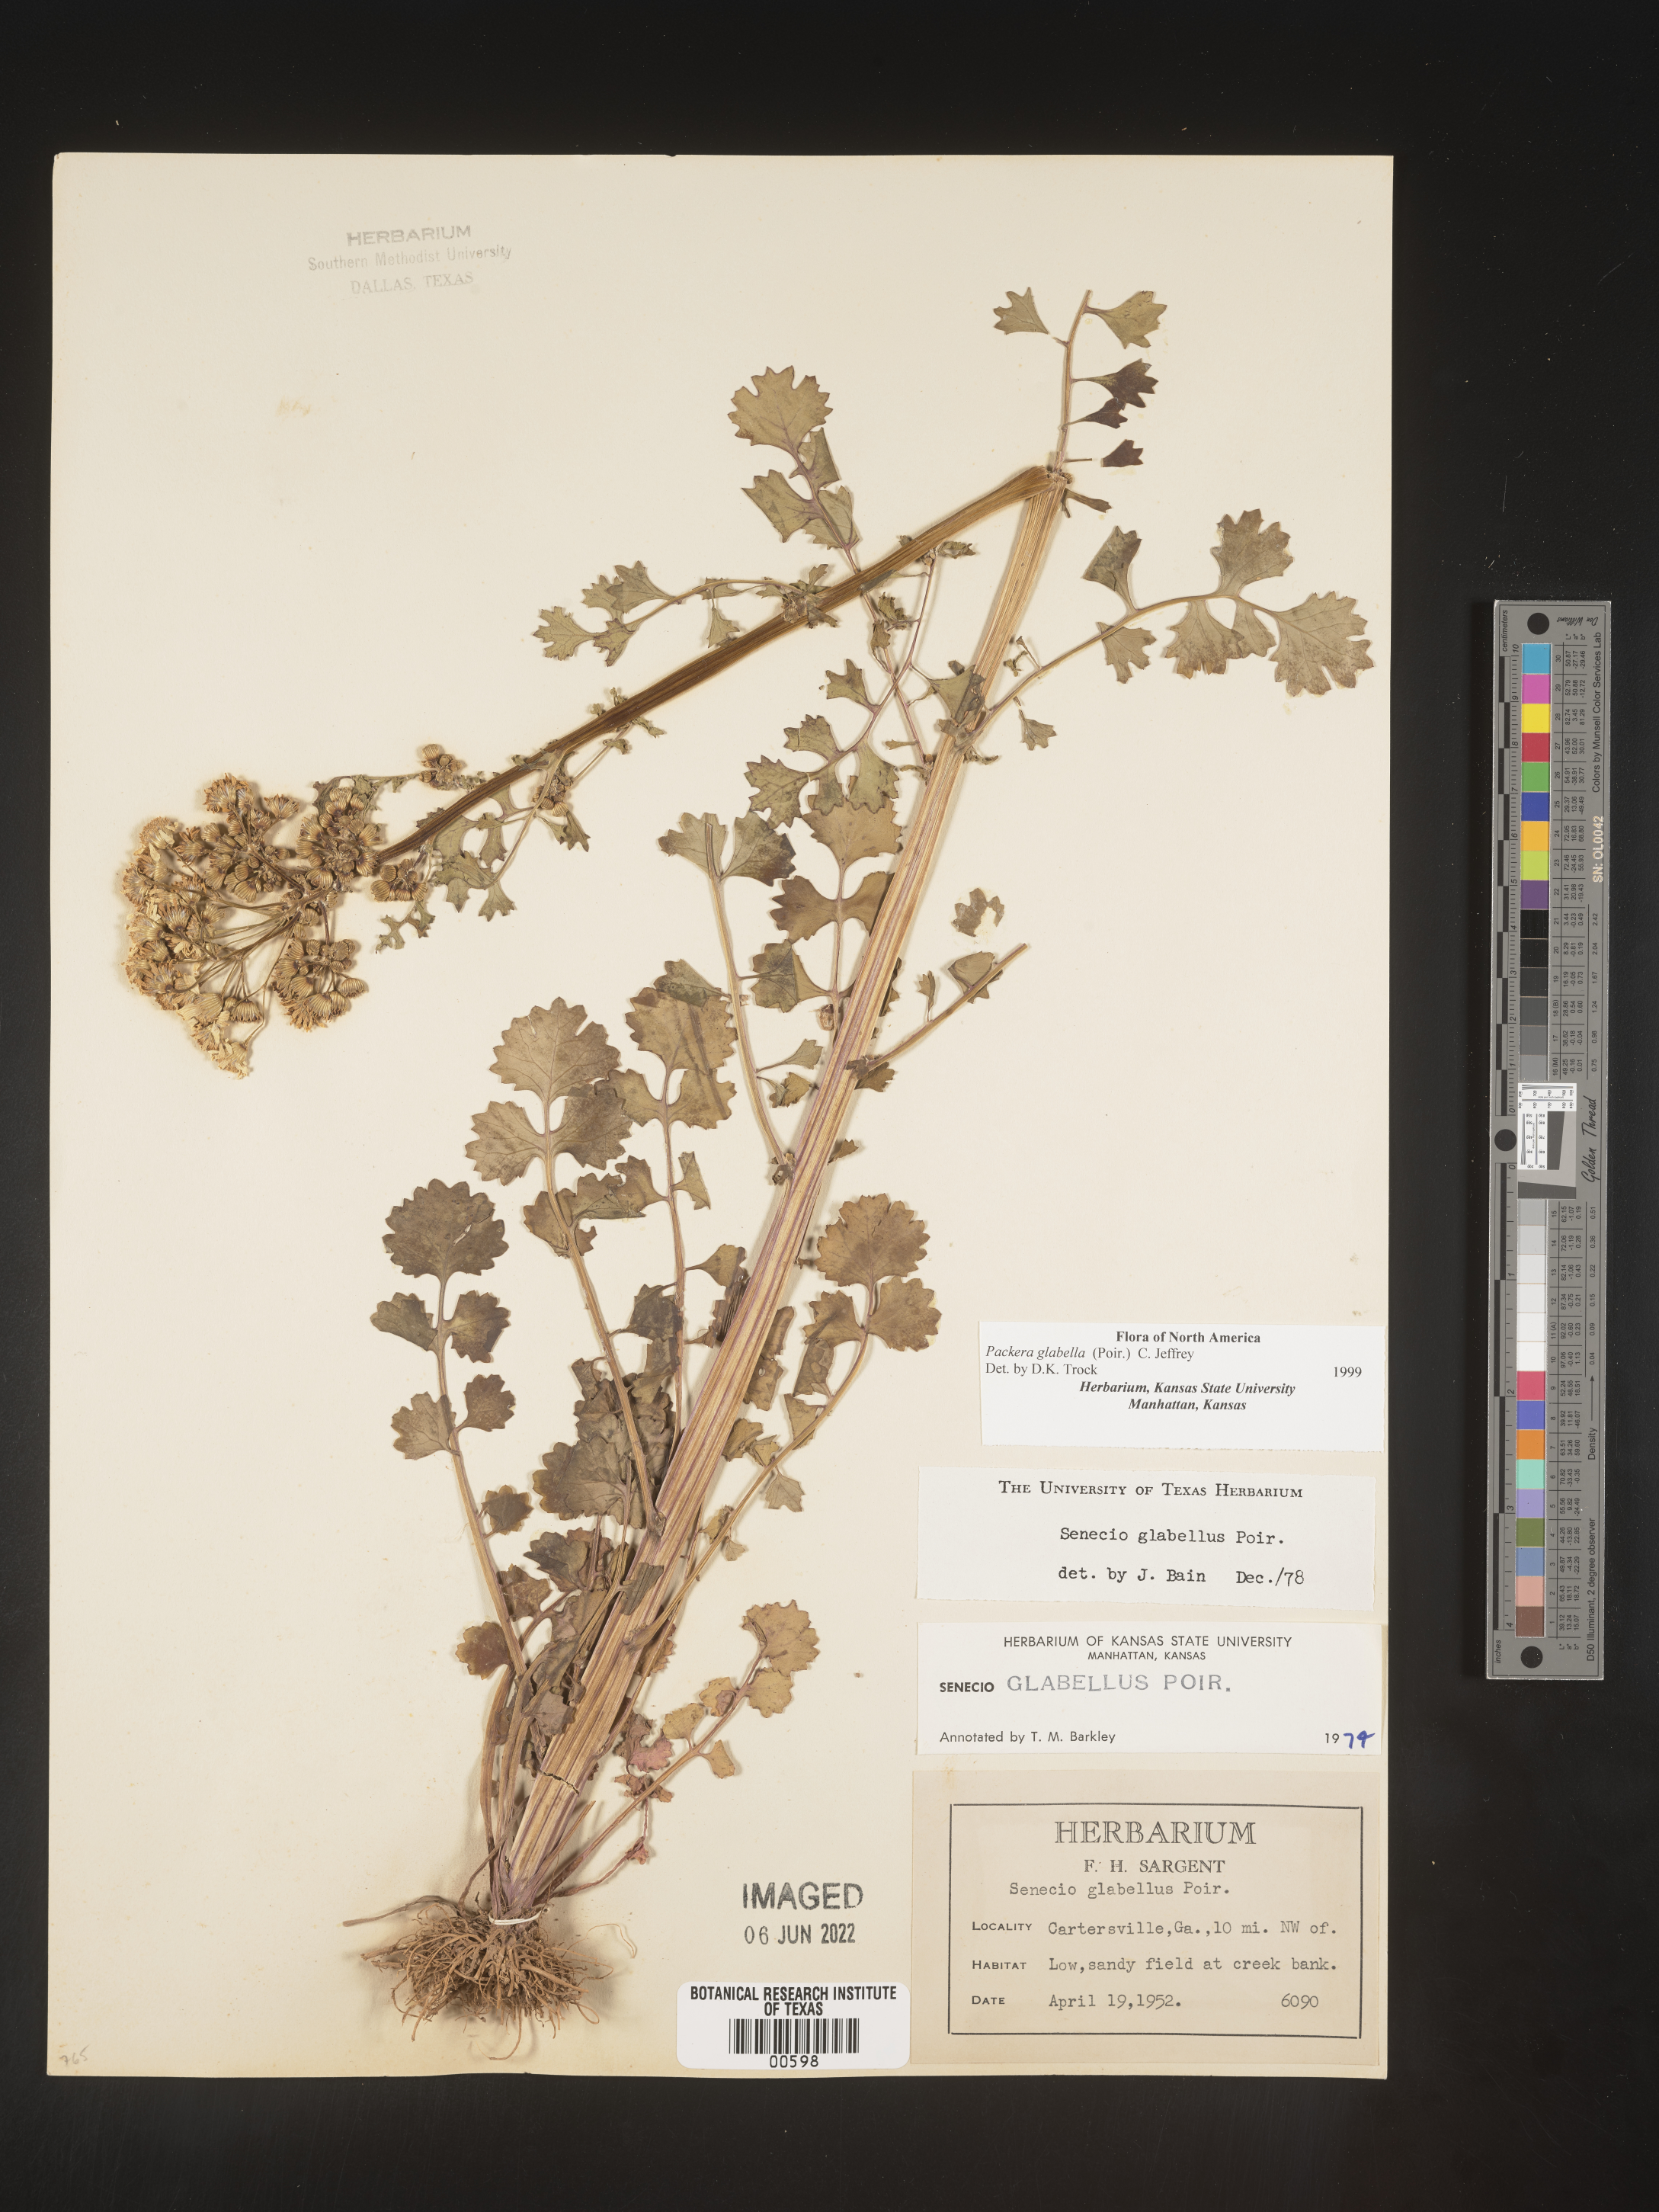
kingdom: Plantae
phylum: Tracheophyta
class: Magnoliopsida
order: Asterales
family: Asteraceae
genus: Packera
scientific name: Packera glabella
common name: Butterweed
